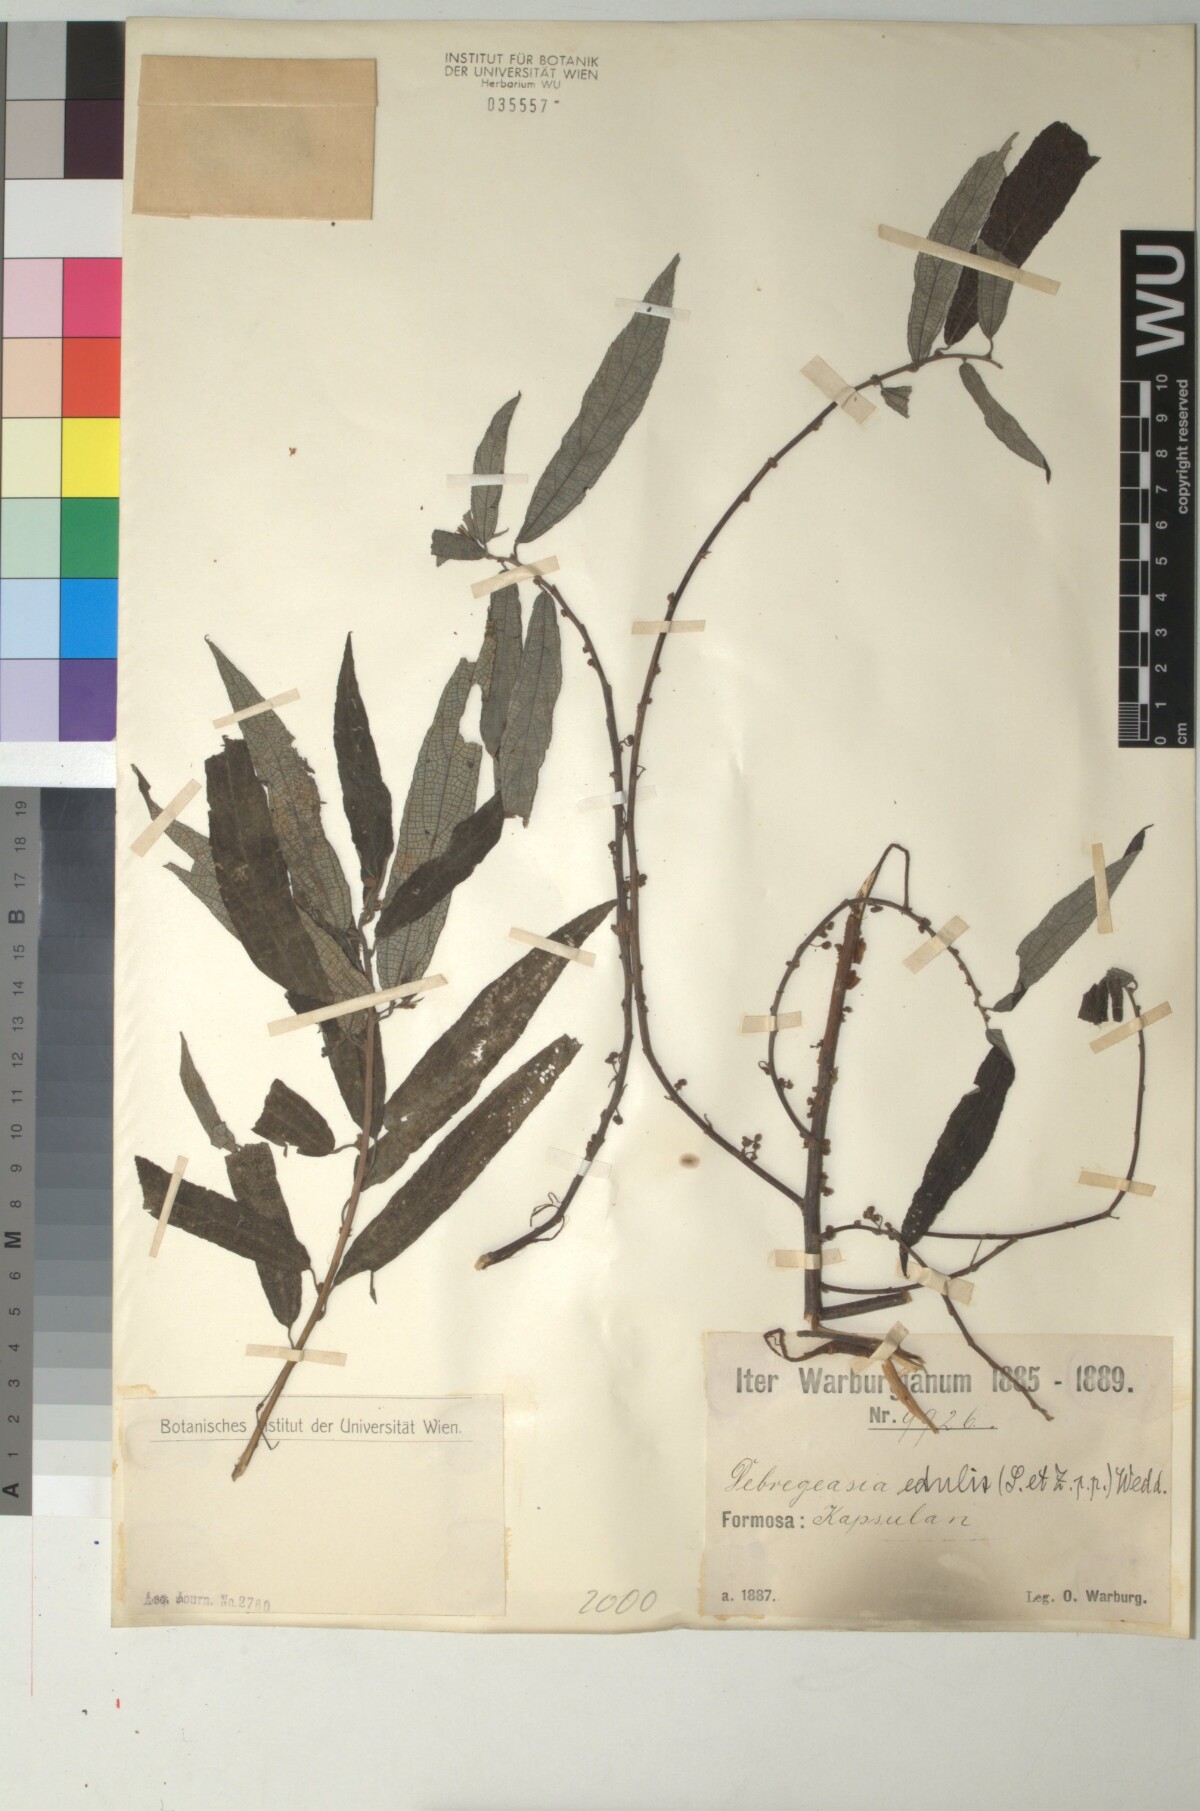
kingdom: Plantae
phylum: Tracheophyta
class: Magnoliopsida
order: Rosales
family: Urticaceae
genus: Debregeasia
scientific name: Debregeasia edulis
